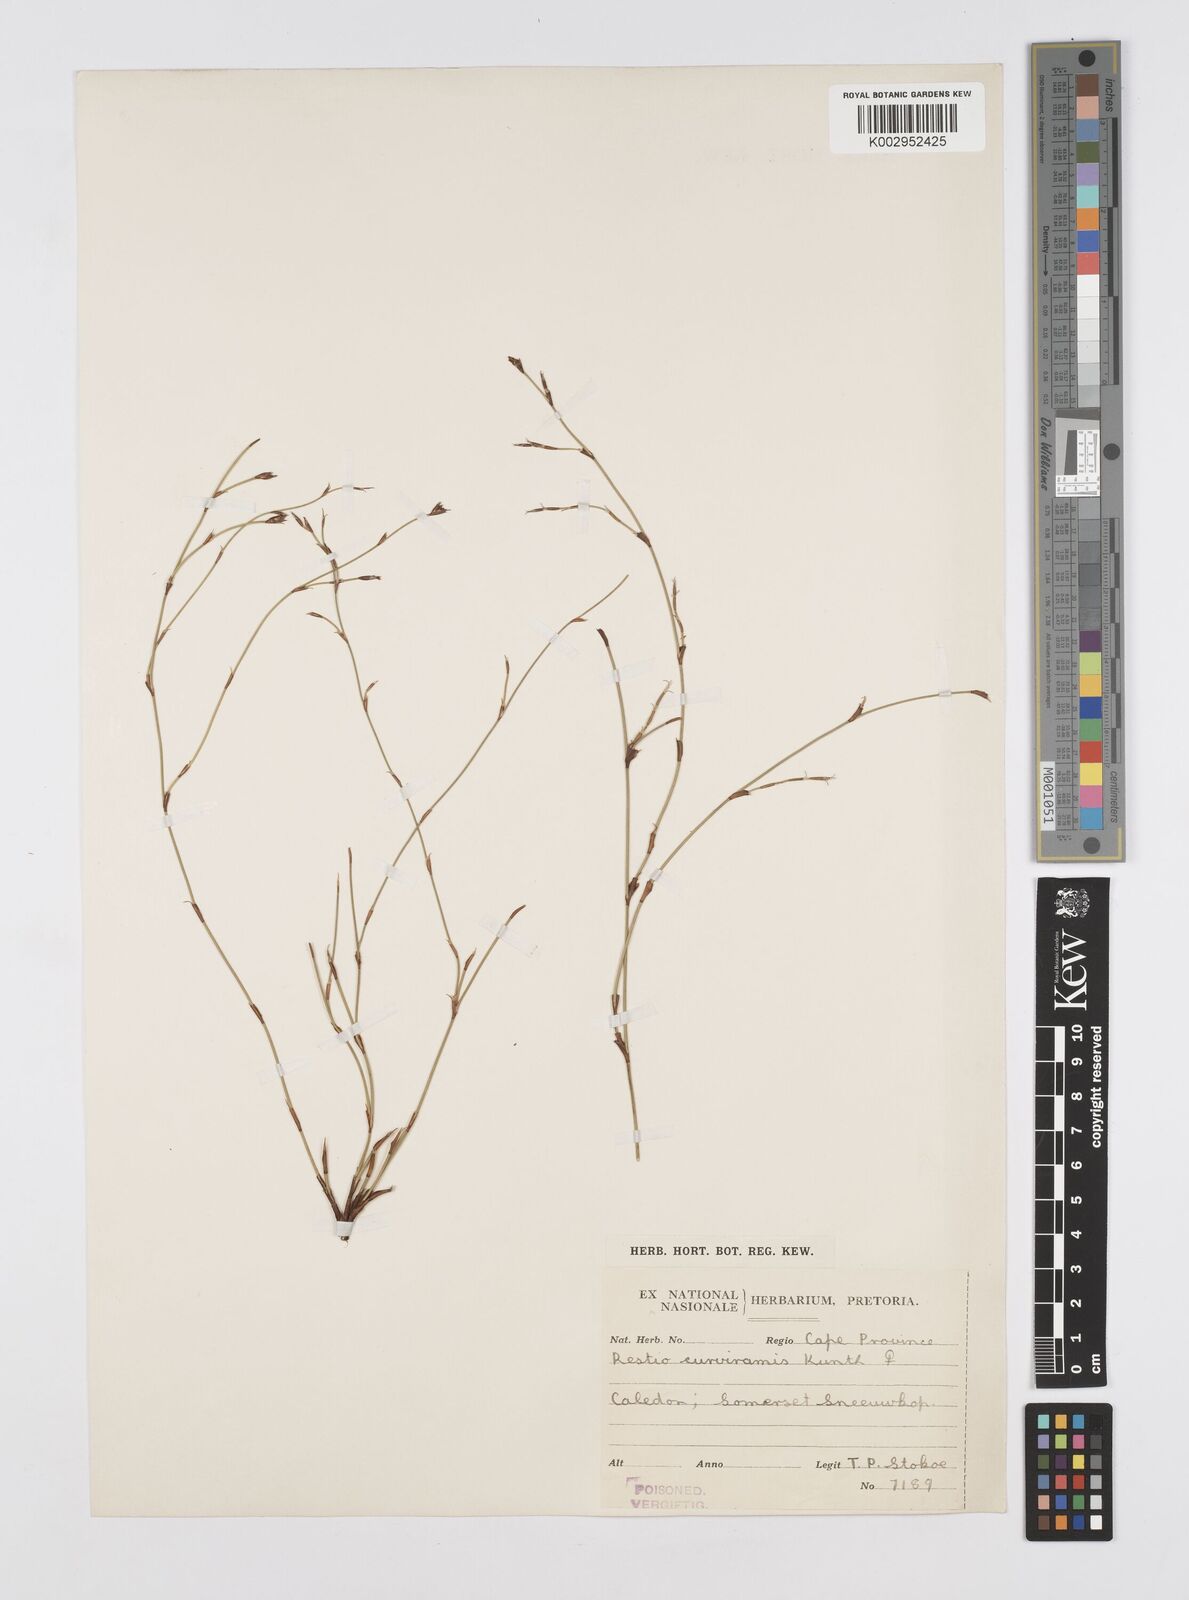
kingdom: Plantae
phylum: Tracheophyta
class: Liliopsida
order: Poales
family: Restionaceae
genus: Restio
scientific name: Restio curviramis
